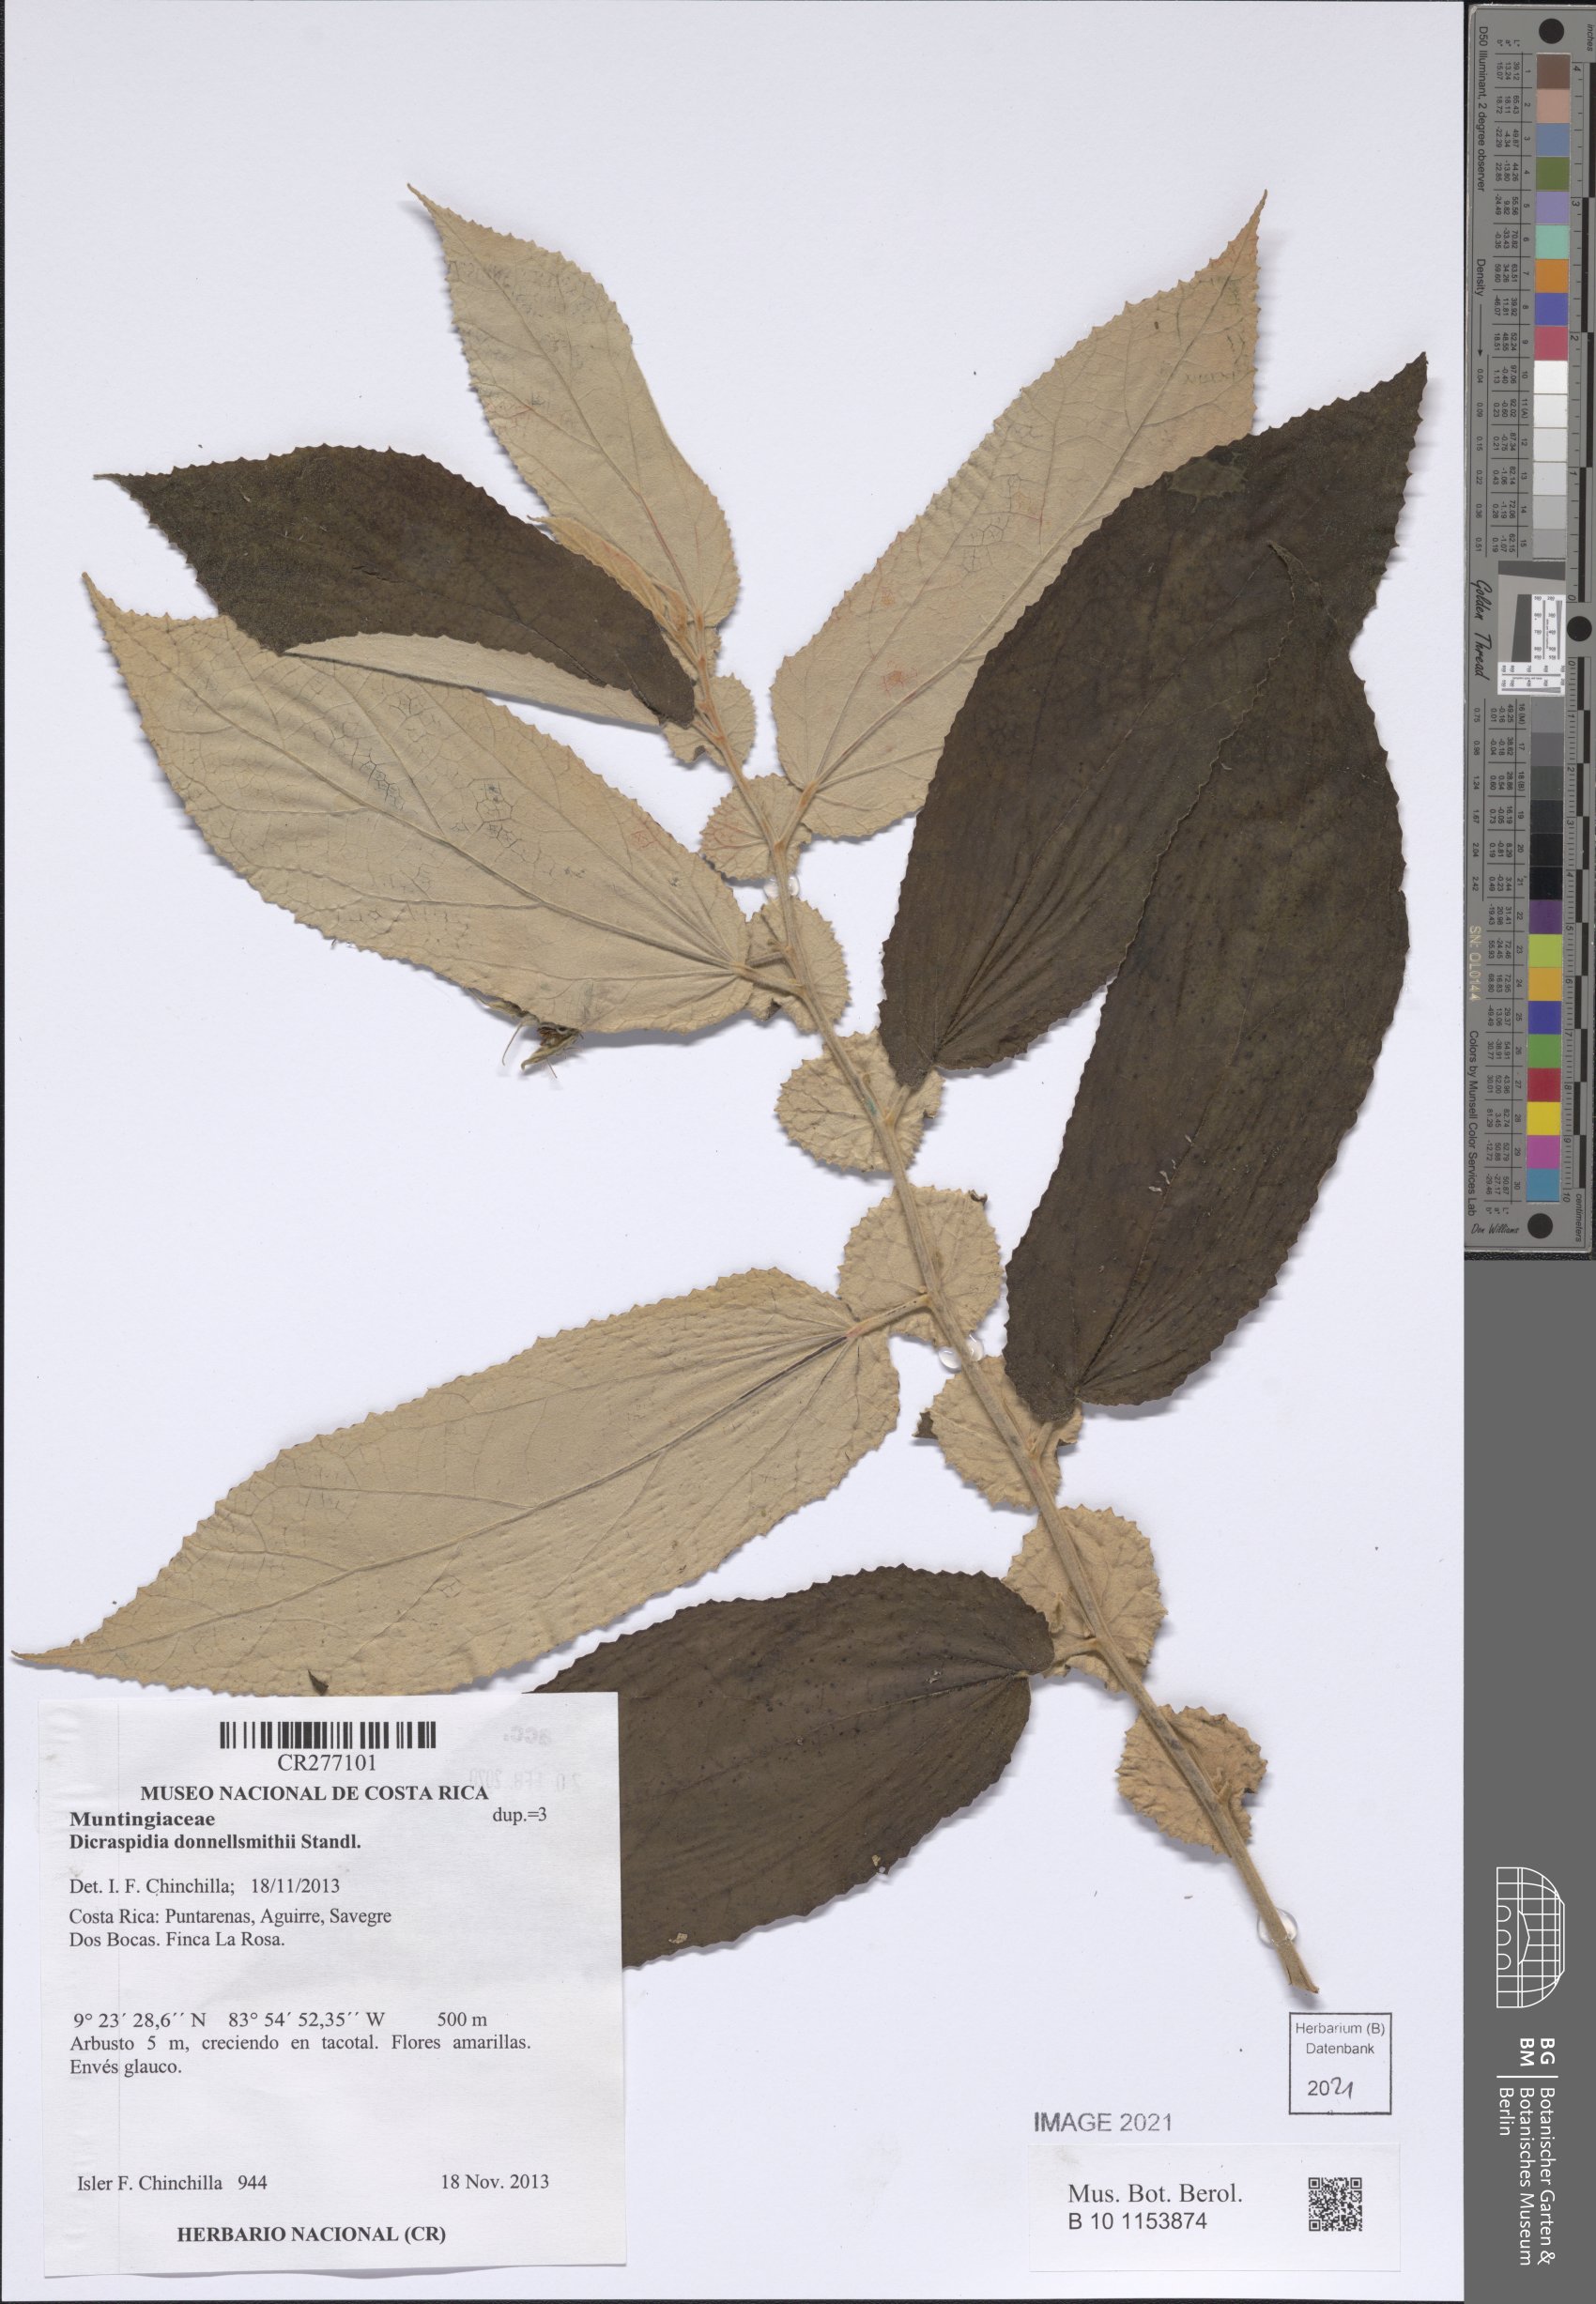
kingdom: Plantae
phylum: Tracheophyta
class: Magnoliopsida
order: Malvales
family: Muntingiaceae
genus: Dicraspidia
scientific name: Dicraspidia donnell-smithii
